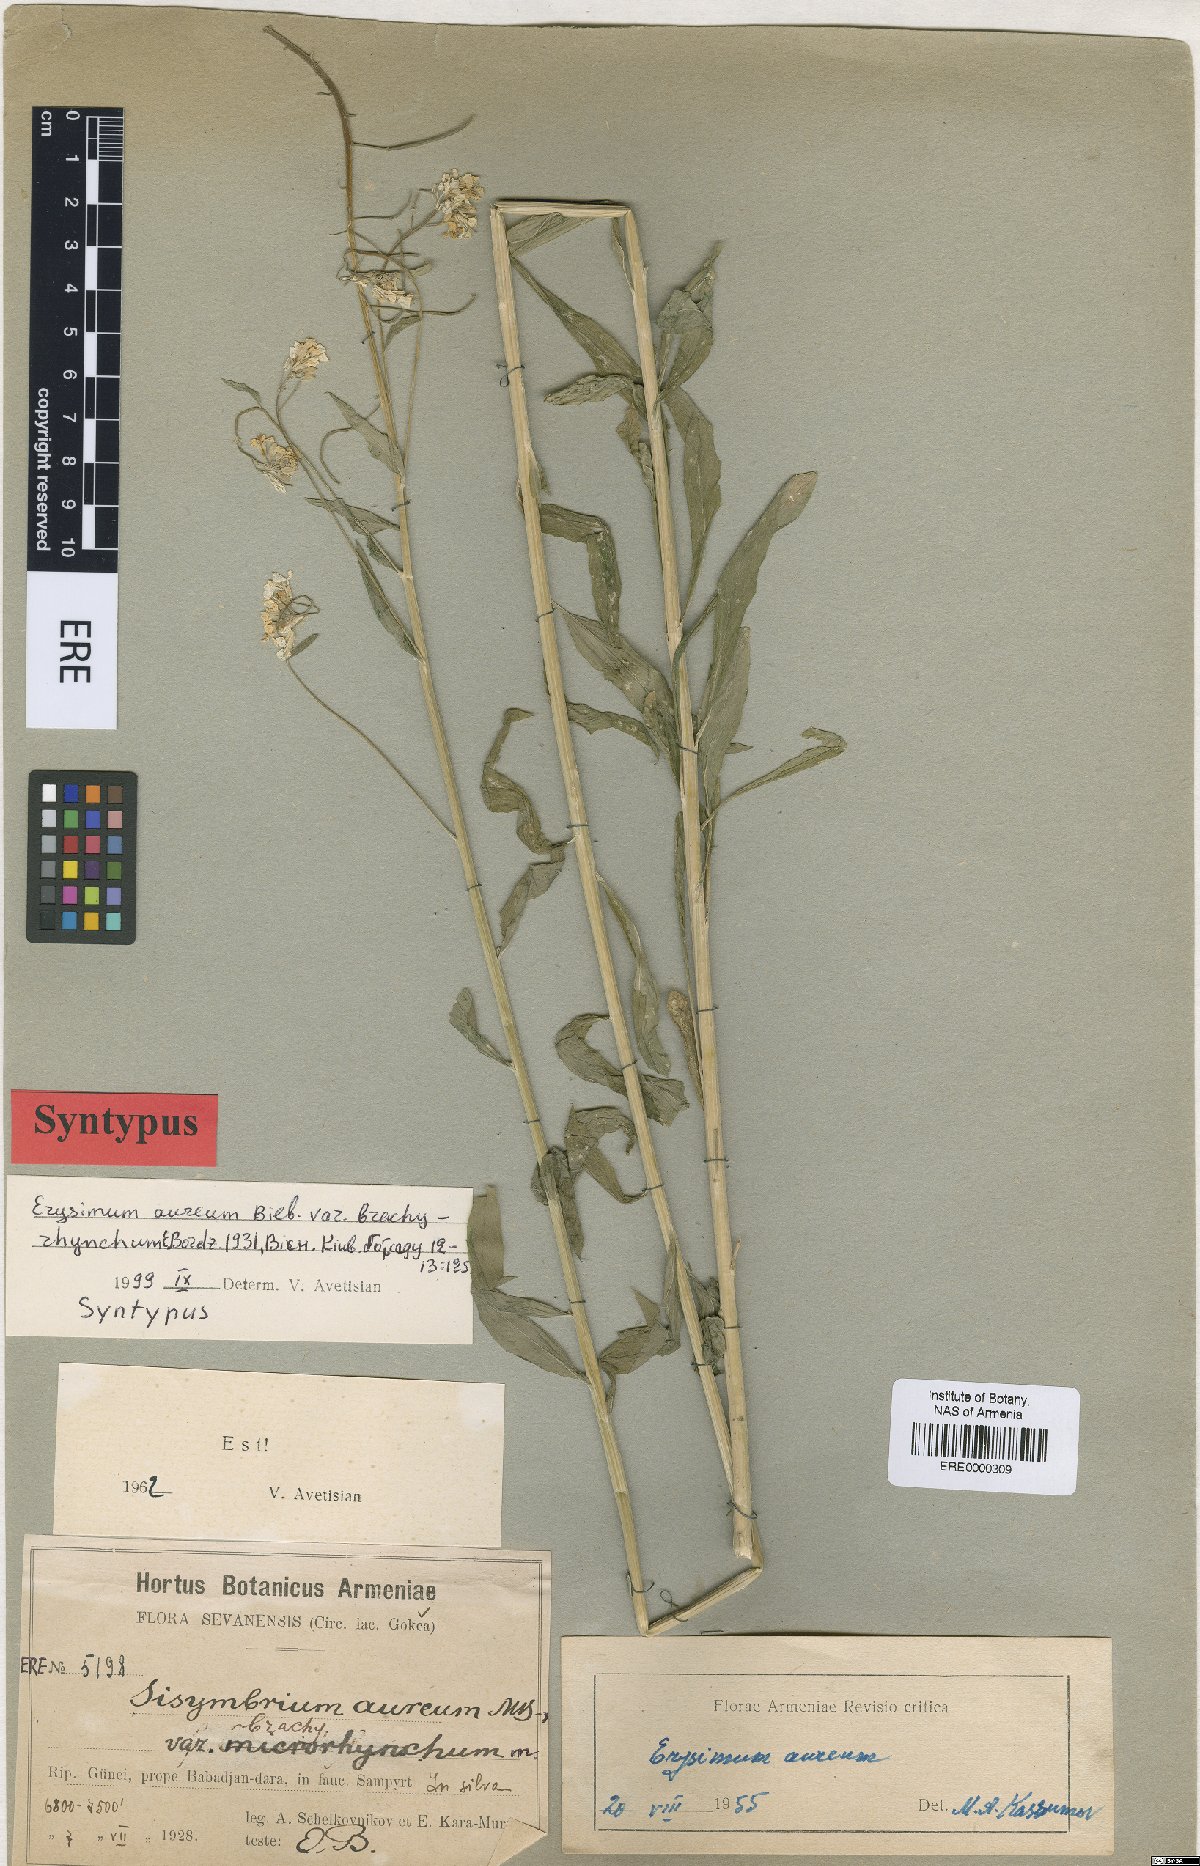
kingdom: Plantae
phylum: Tracheophyta
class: Magnoliopsida
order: Brassicales
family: Brassicaceae
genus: Erysimum
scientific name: Erysimum aureum
